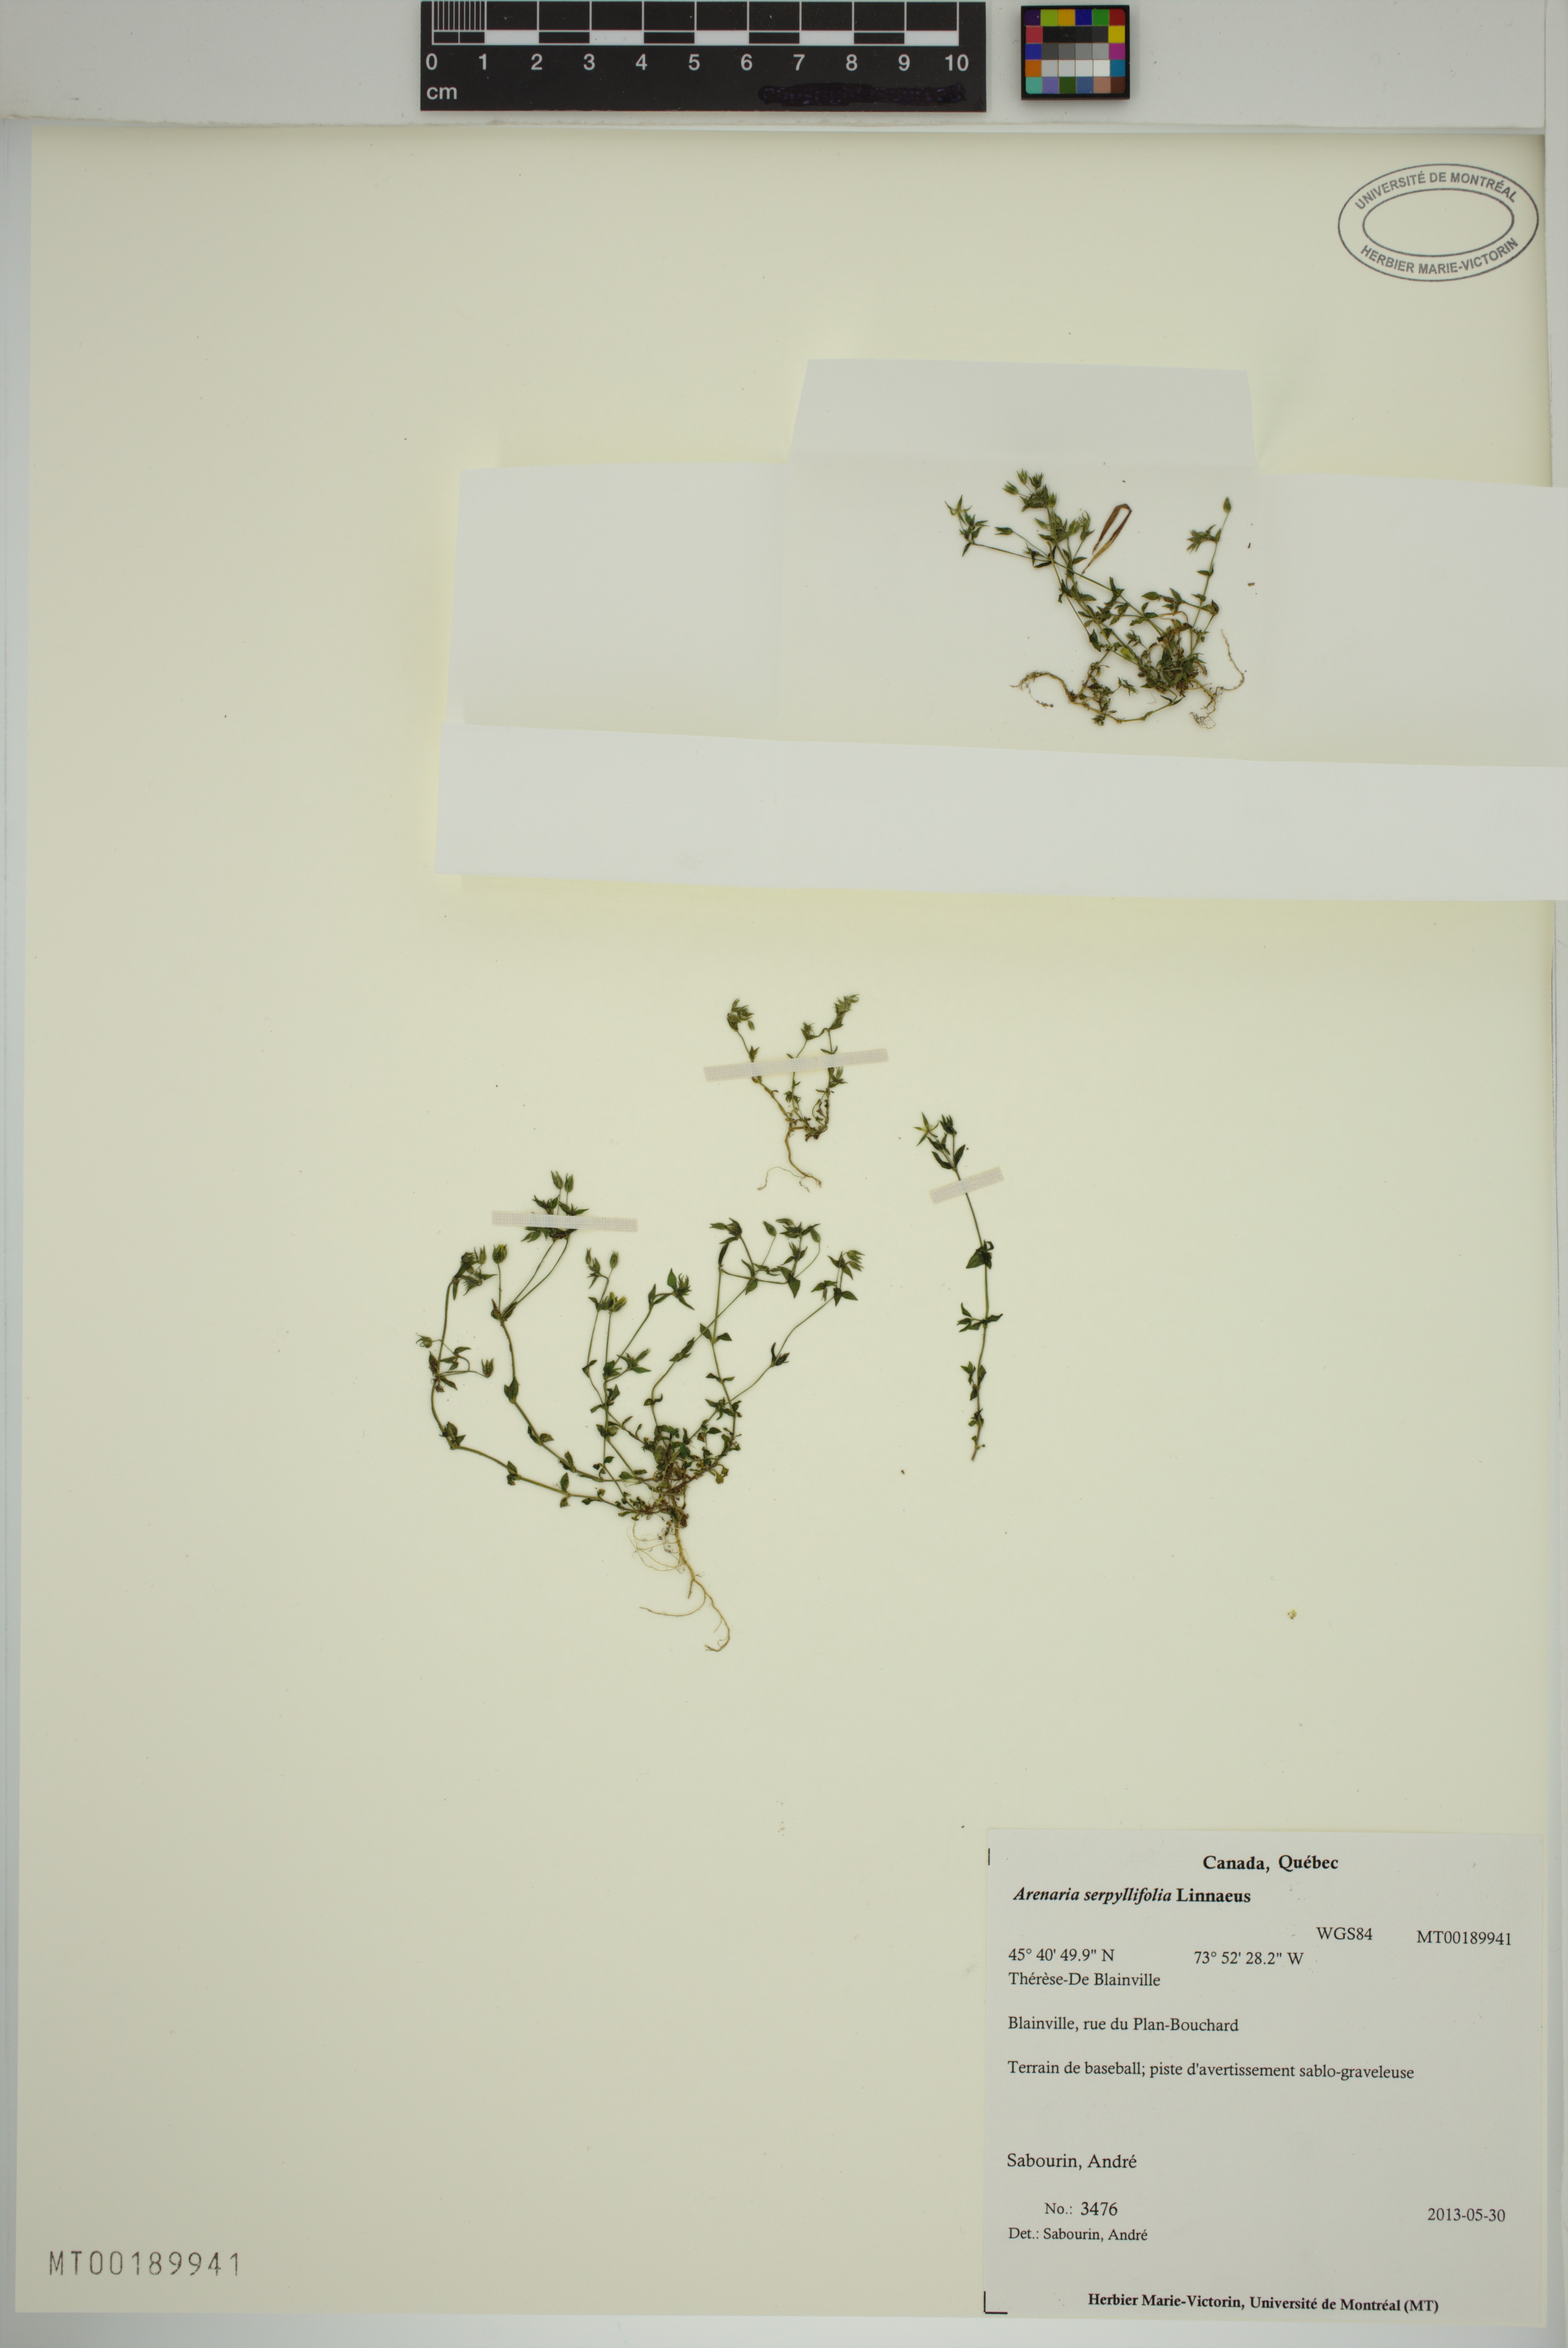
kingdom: Plantae
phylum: Tracheophyta
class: Magnoliopsida
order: Caryophyllales
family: Caryophyllaceae
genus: Arenaria
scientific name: Arenaria serpyllifolia
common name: Thyme-leaved sandwort
